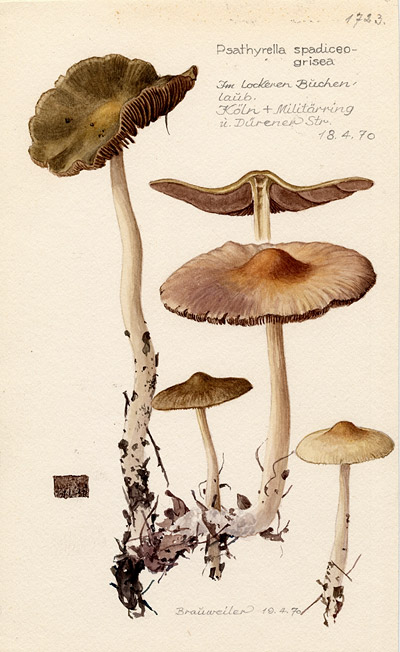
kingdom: Fungi
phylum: Basidiomycota
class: Agaricomycetes
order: Agaricales
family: Psathyrellaceae
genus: Psathyrella
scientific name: Psathyrella spadiceogrisea
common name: Spring brittlestem
